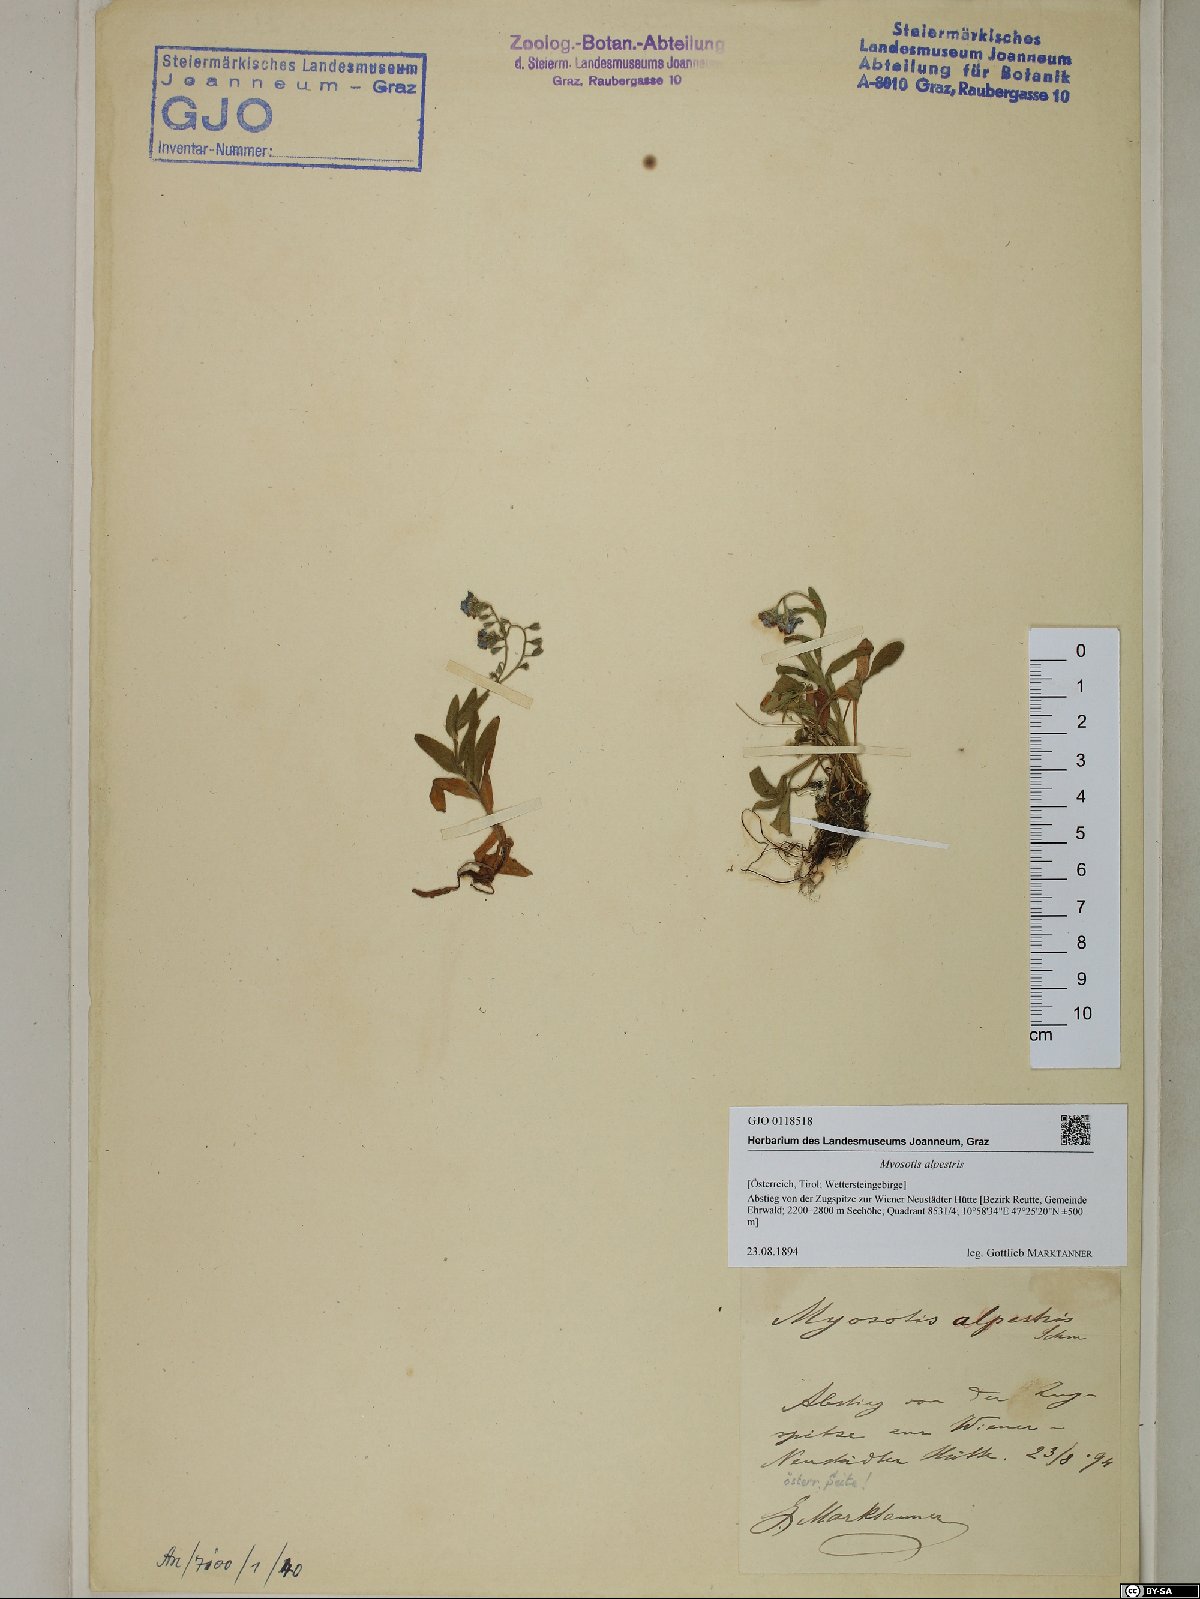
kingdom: Plantae
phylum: Tracheophyta
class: Magnoliopsida
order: Boraginales
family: Boraginaceae
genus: Myosotis
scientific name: Myosotis alpestris
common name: Alpine forget-me-not
